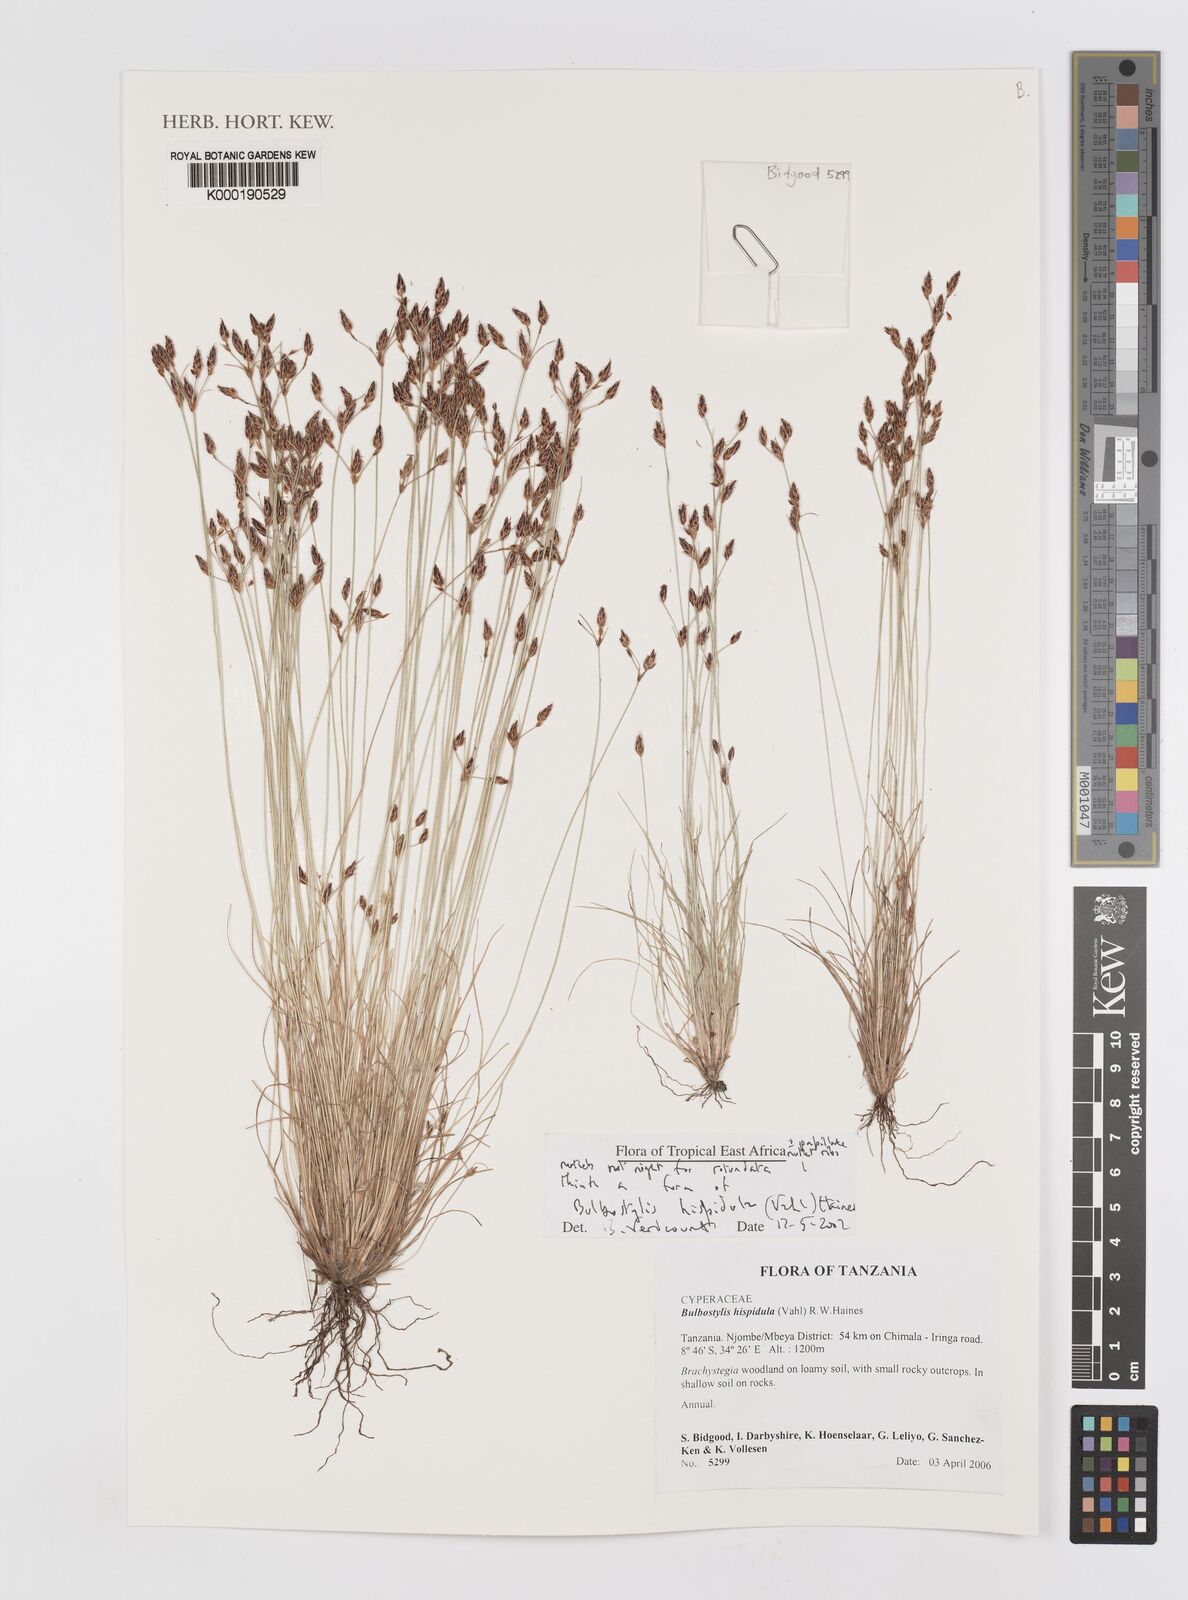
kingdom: Plantae
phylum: Tracheophyta
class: Liliopsida
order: Poales
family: Cyperaceae
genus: Bulbostylis
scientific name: Bulbostylis hispidula
